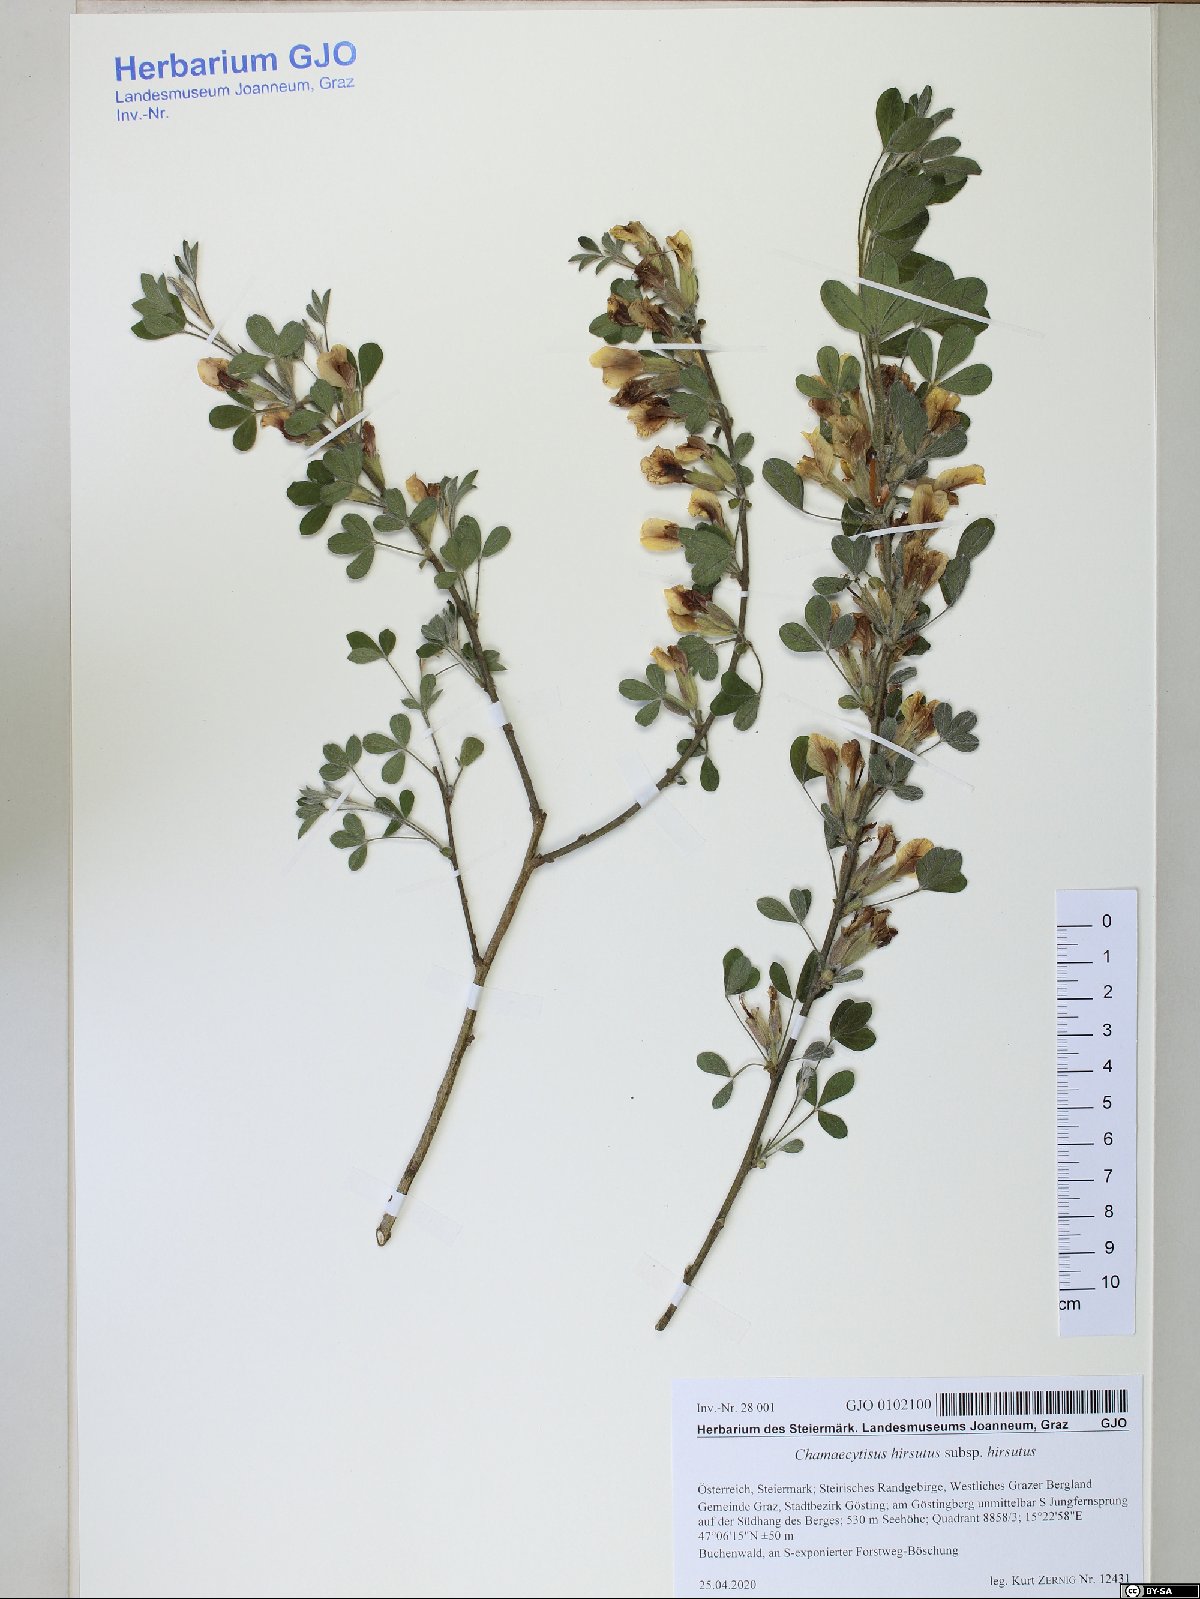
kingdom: Plantae
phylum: Tracheophyta
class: Magnoliopsida
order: Fabales
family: Fabaceae
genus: Chamaecytisus
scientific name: Chamaecytisus hirsutus
